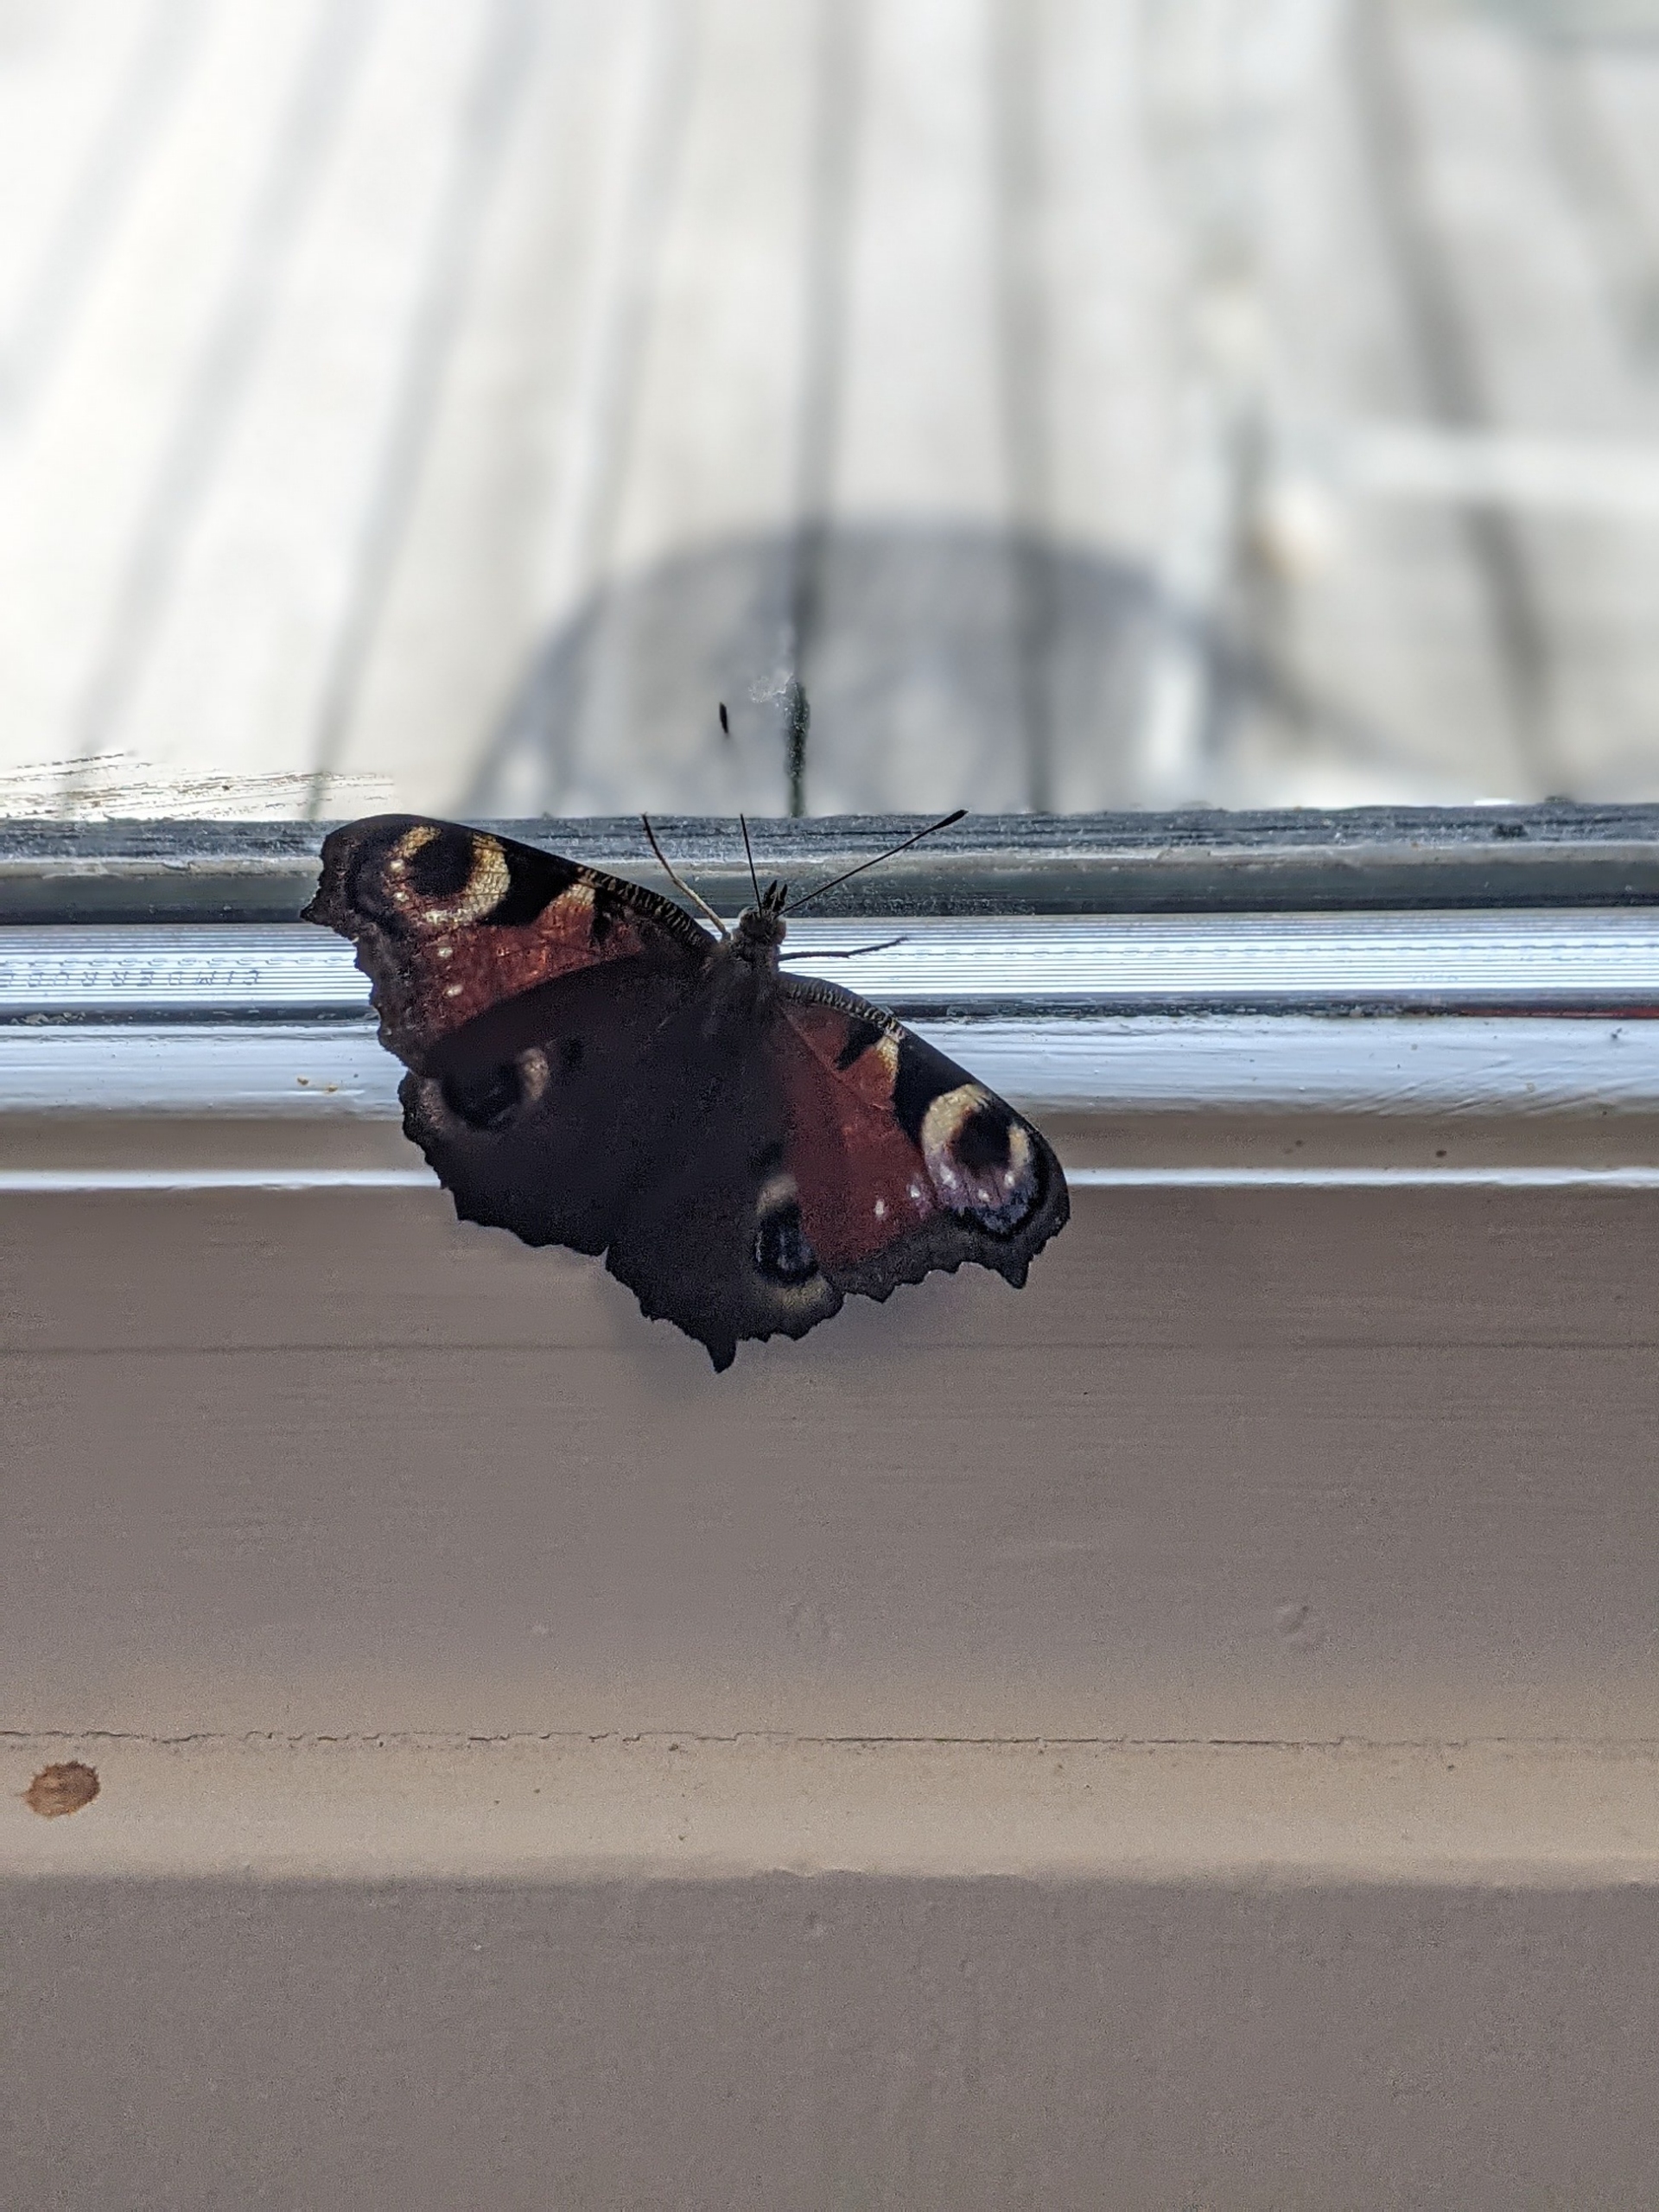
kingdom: Animalia
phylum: Arthropoda
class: Insecta
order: Lepidoptera
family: Nymphalidae
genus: Aglais
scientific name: Aglais io
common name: Dagpåfugleøje
